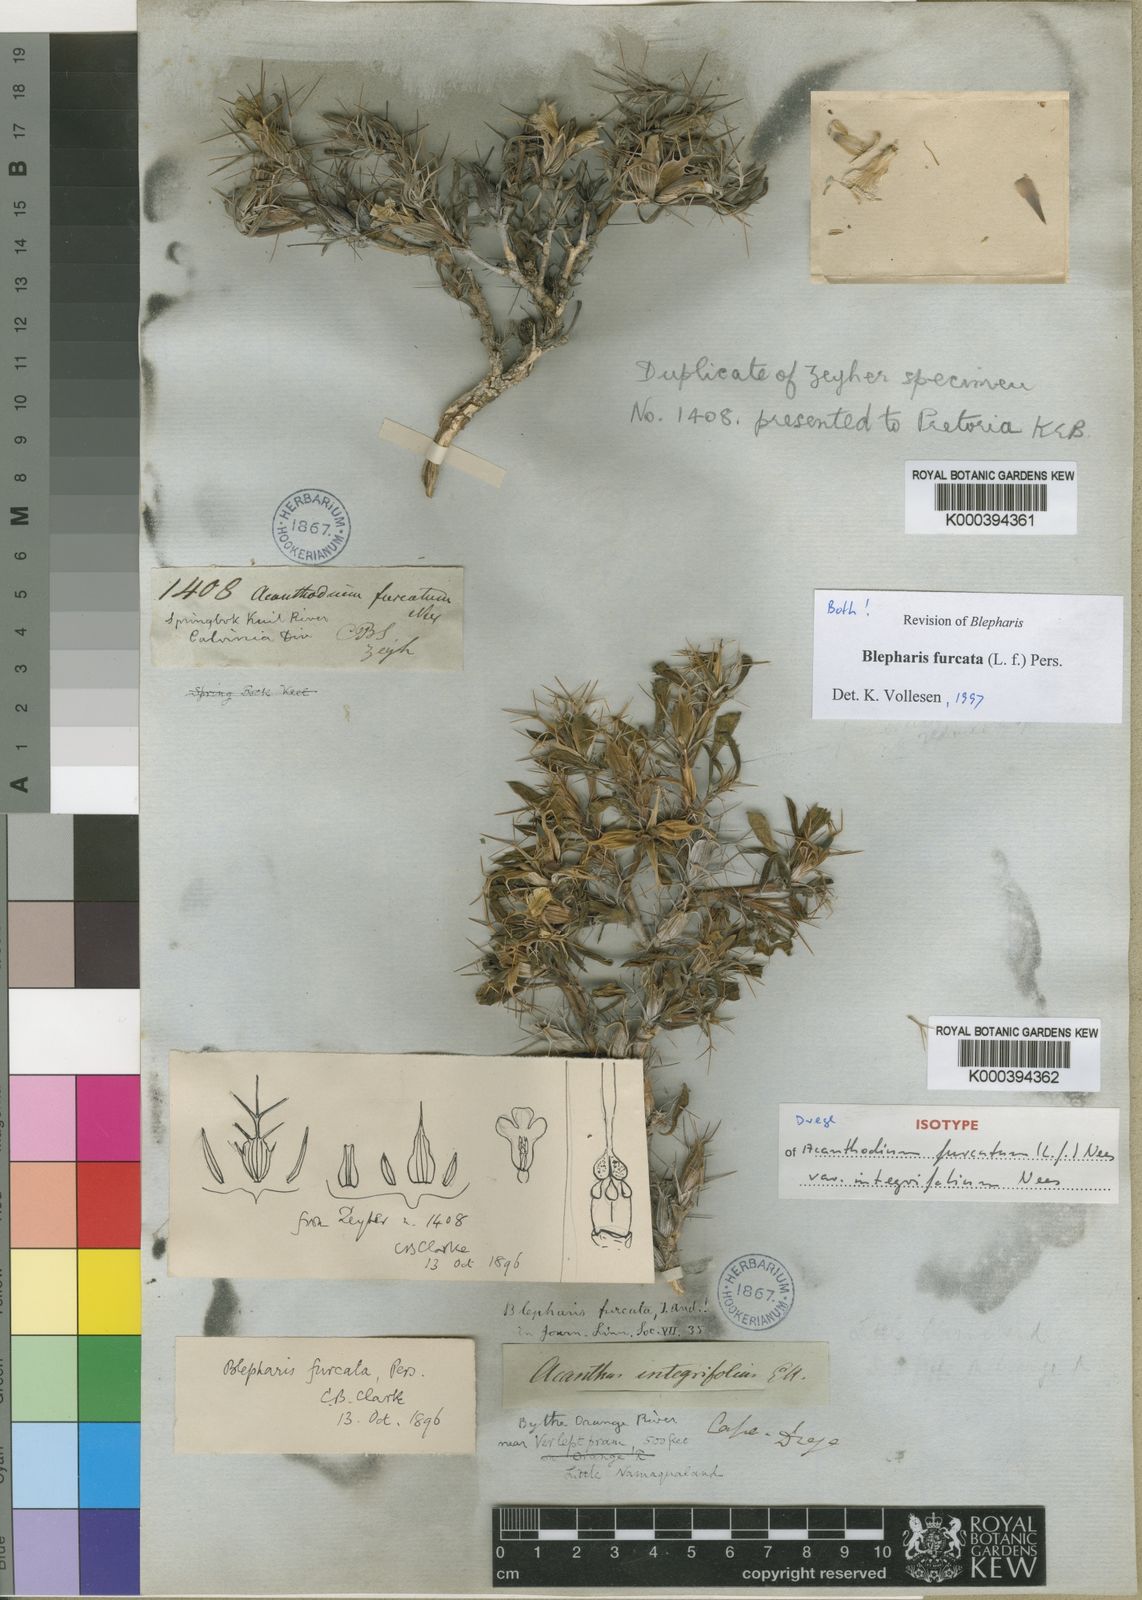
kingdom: Plantae
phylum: Tracheophyta
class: Magnoliopsida
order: Lamiales
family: Acanthaceae
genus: Blepharis
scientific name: Blepharis furcata
